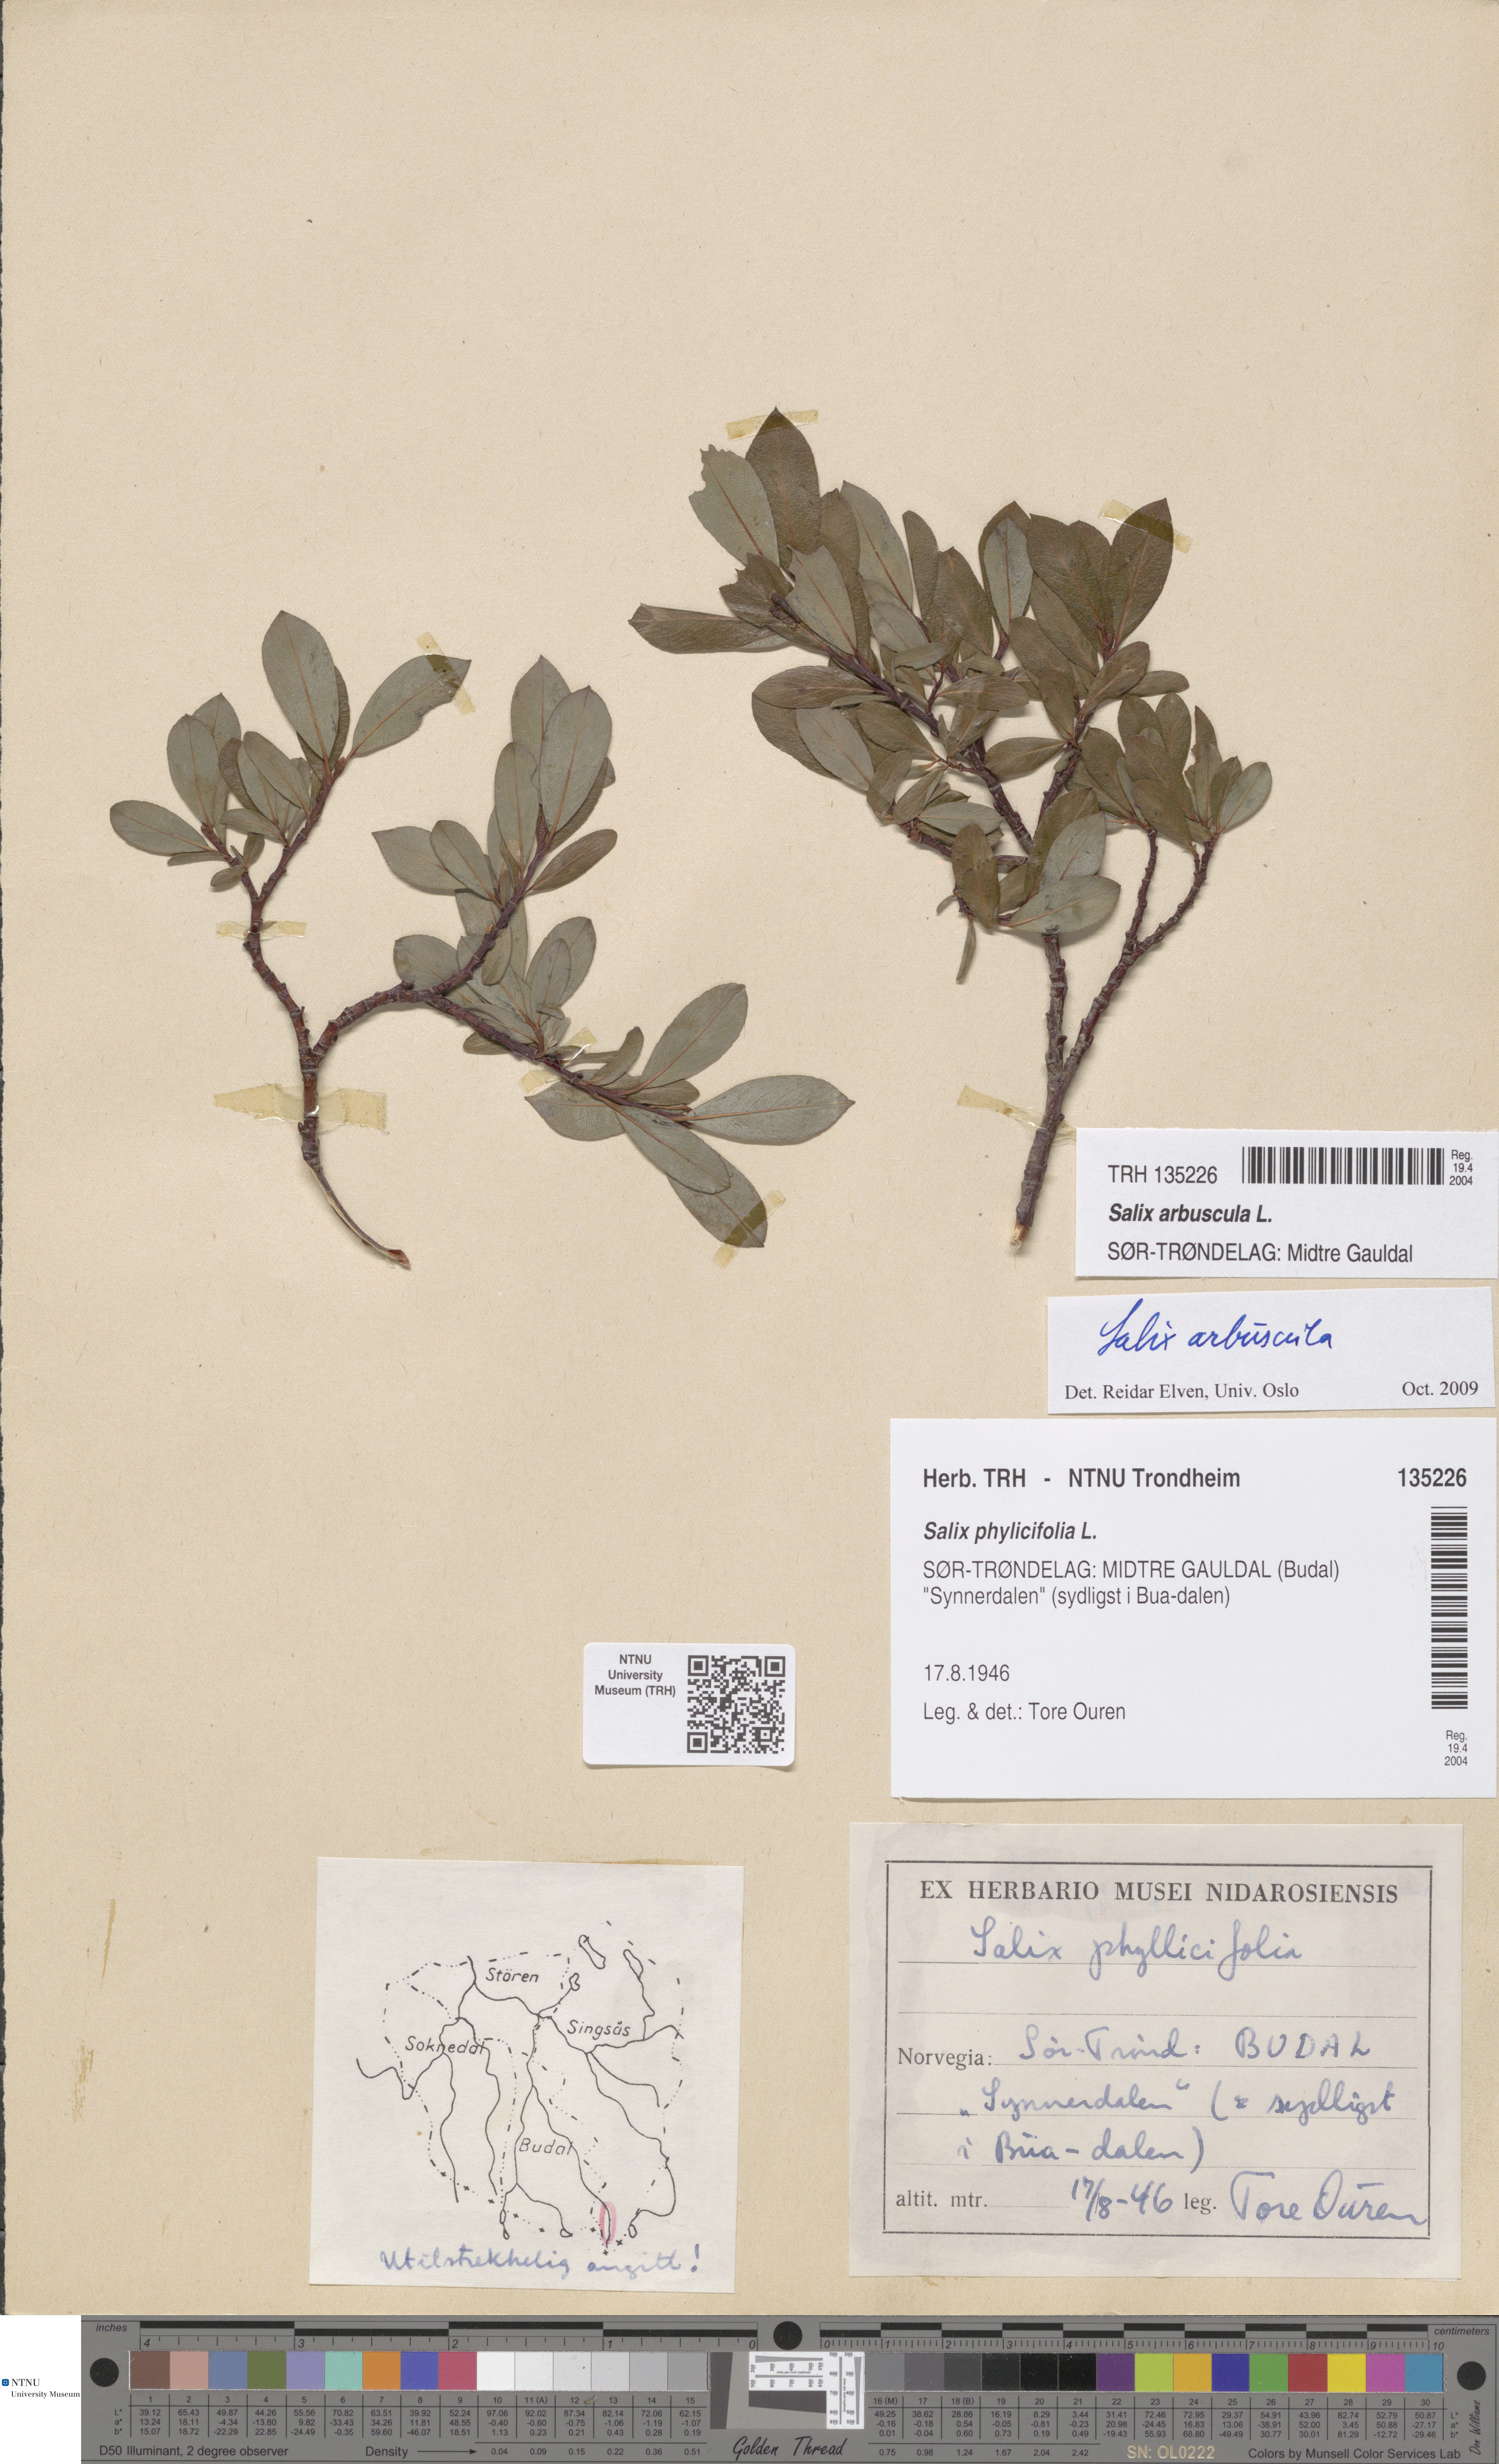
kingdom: Plantae
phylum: Tracheophyta
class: Magnoliopsida
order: Malpighiales
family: Salicaceae
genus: Salix
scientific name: Salix arbuscula
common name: Mountain willow
